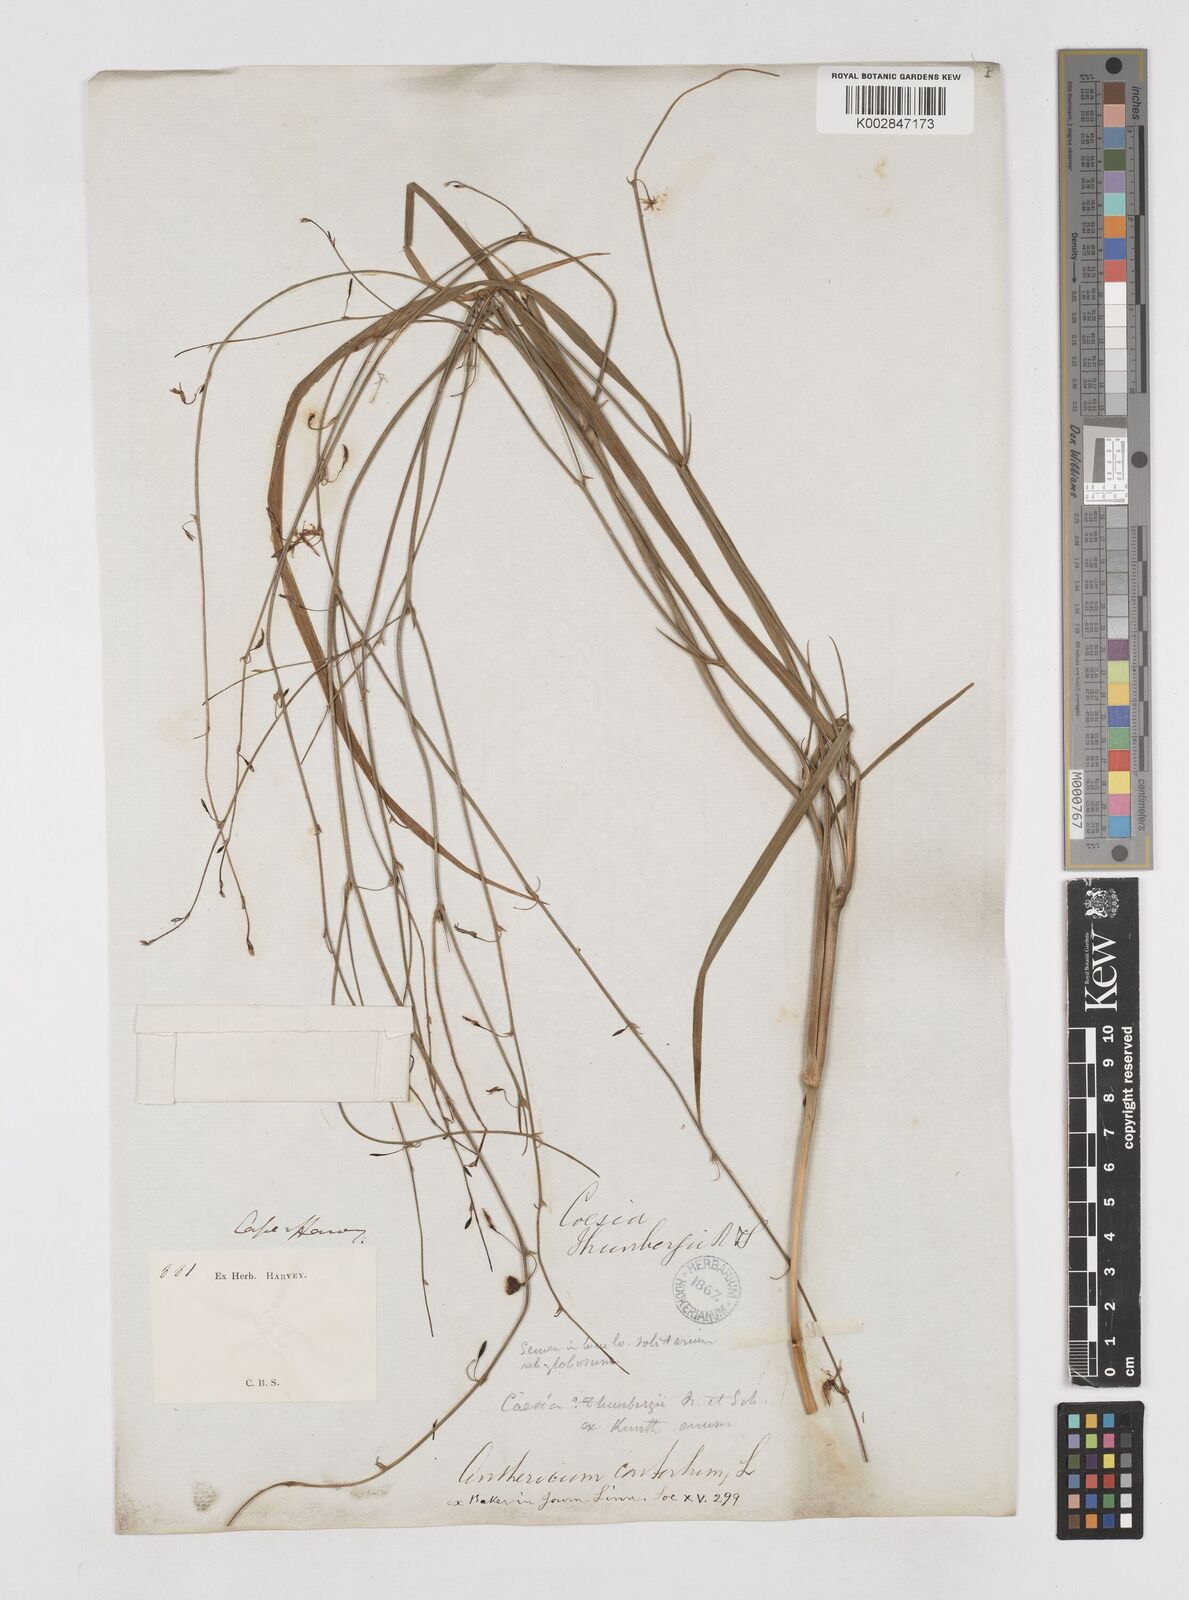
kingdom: Plantae
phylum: Tracheophyta
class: Liliopsida
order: Asparagales
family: Asphodelaceae
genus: Caesia
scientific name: Caesia contorta
